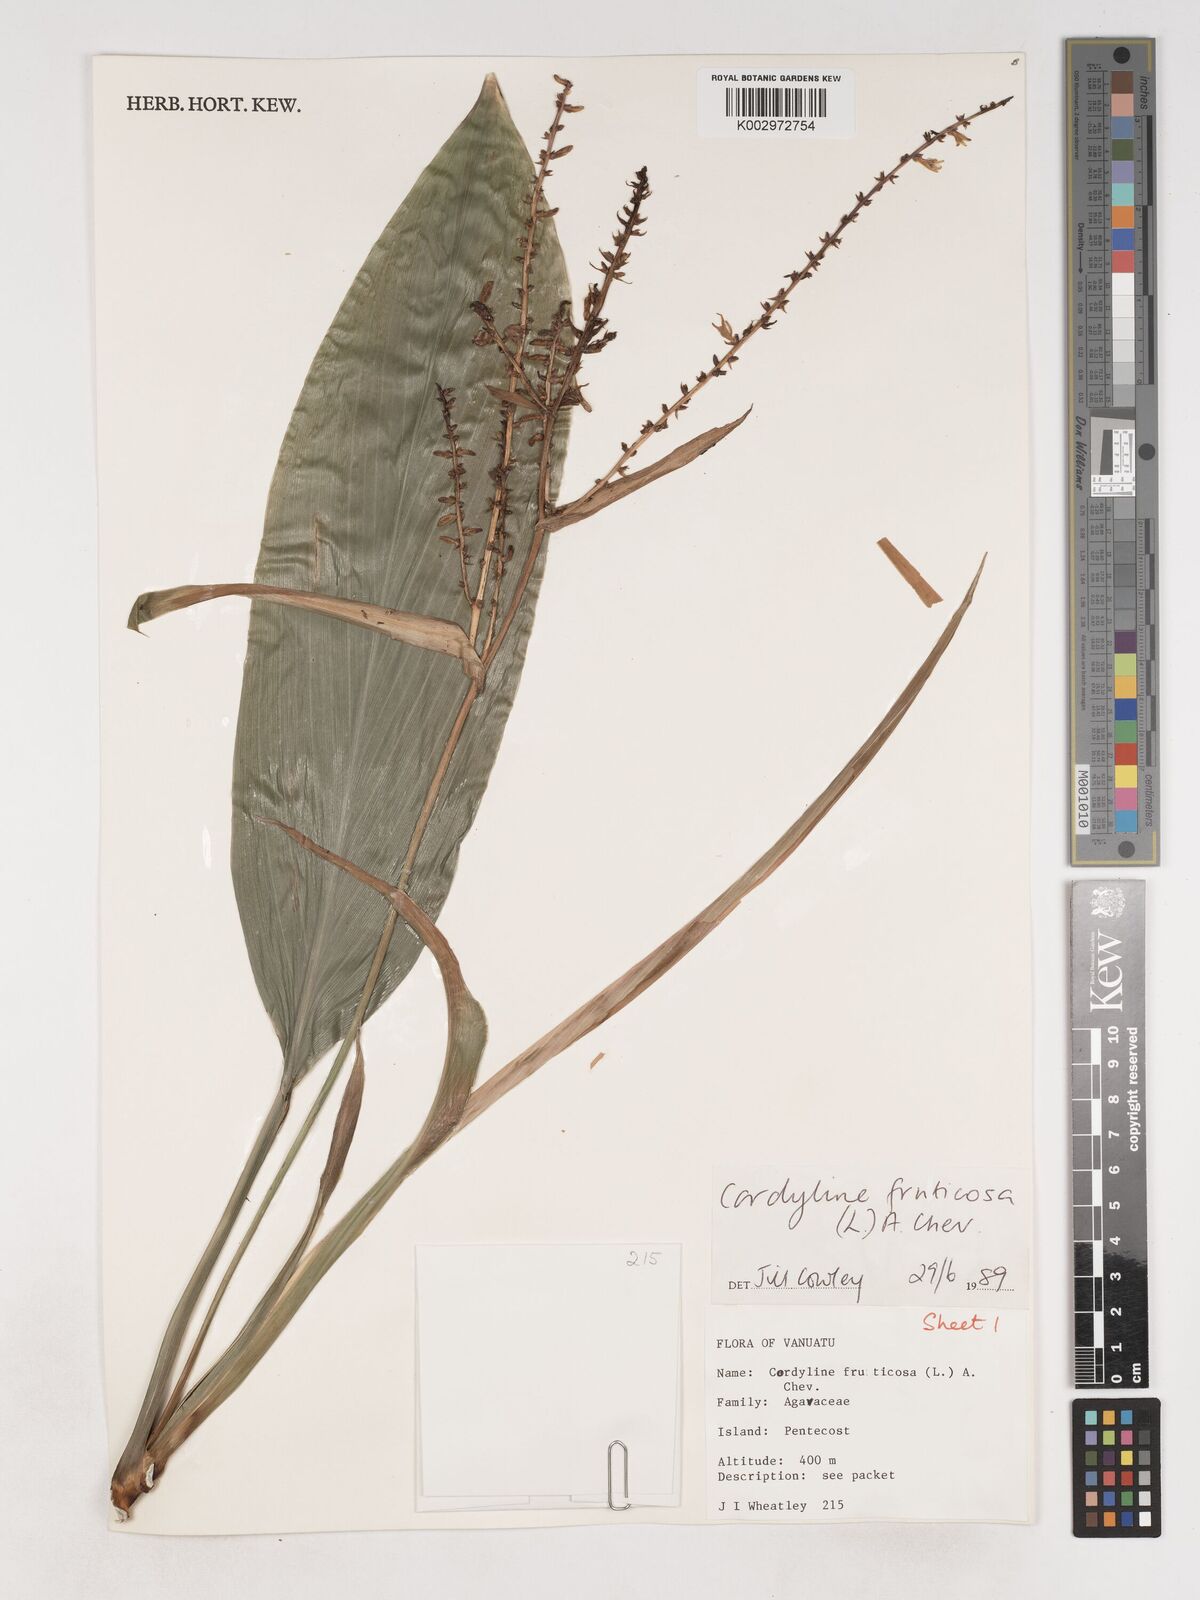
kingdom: Plantae
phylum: Tracheophyta
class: Liliopsida
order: Asparagales
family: Asparagaceae
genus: Cordyline
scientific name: Cordyline fruticosa
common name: Good-luck-plant
